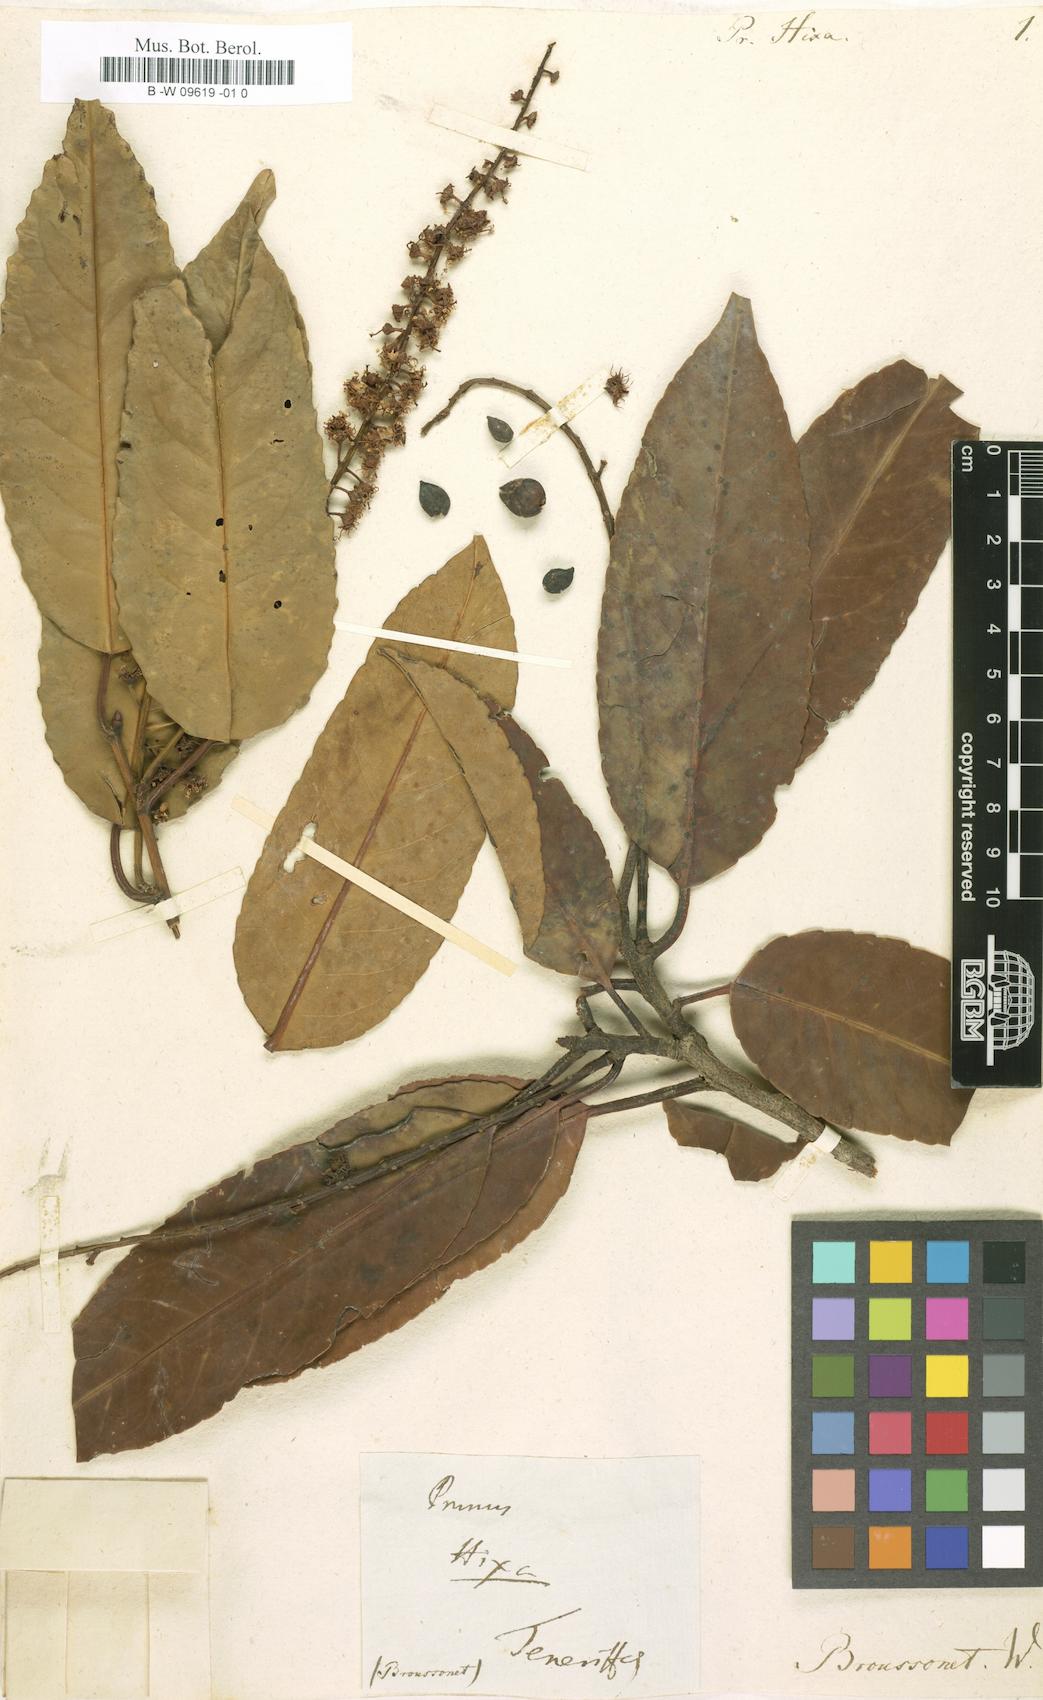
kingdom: Plantae
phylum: Tracheophyta
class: Magnoliopsida
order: Rosales
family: Rosaceae
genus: Prunus
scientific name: Prunus hixa
